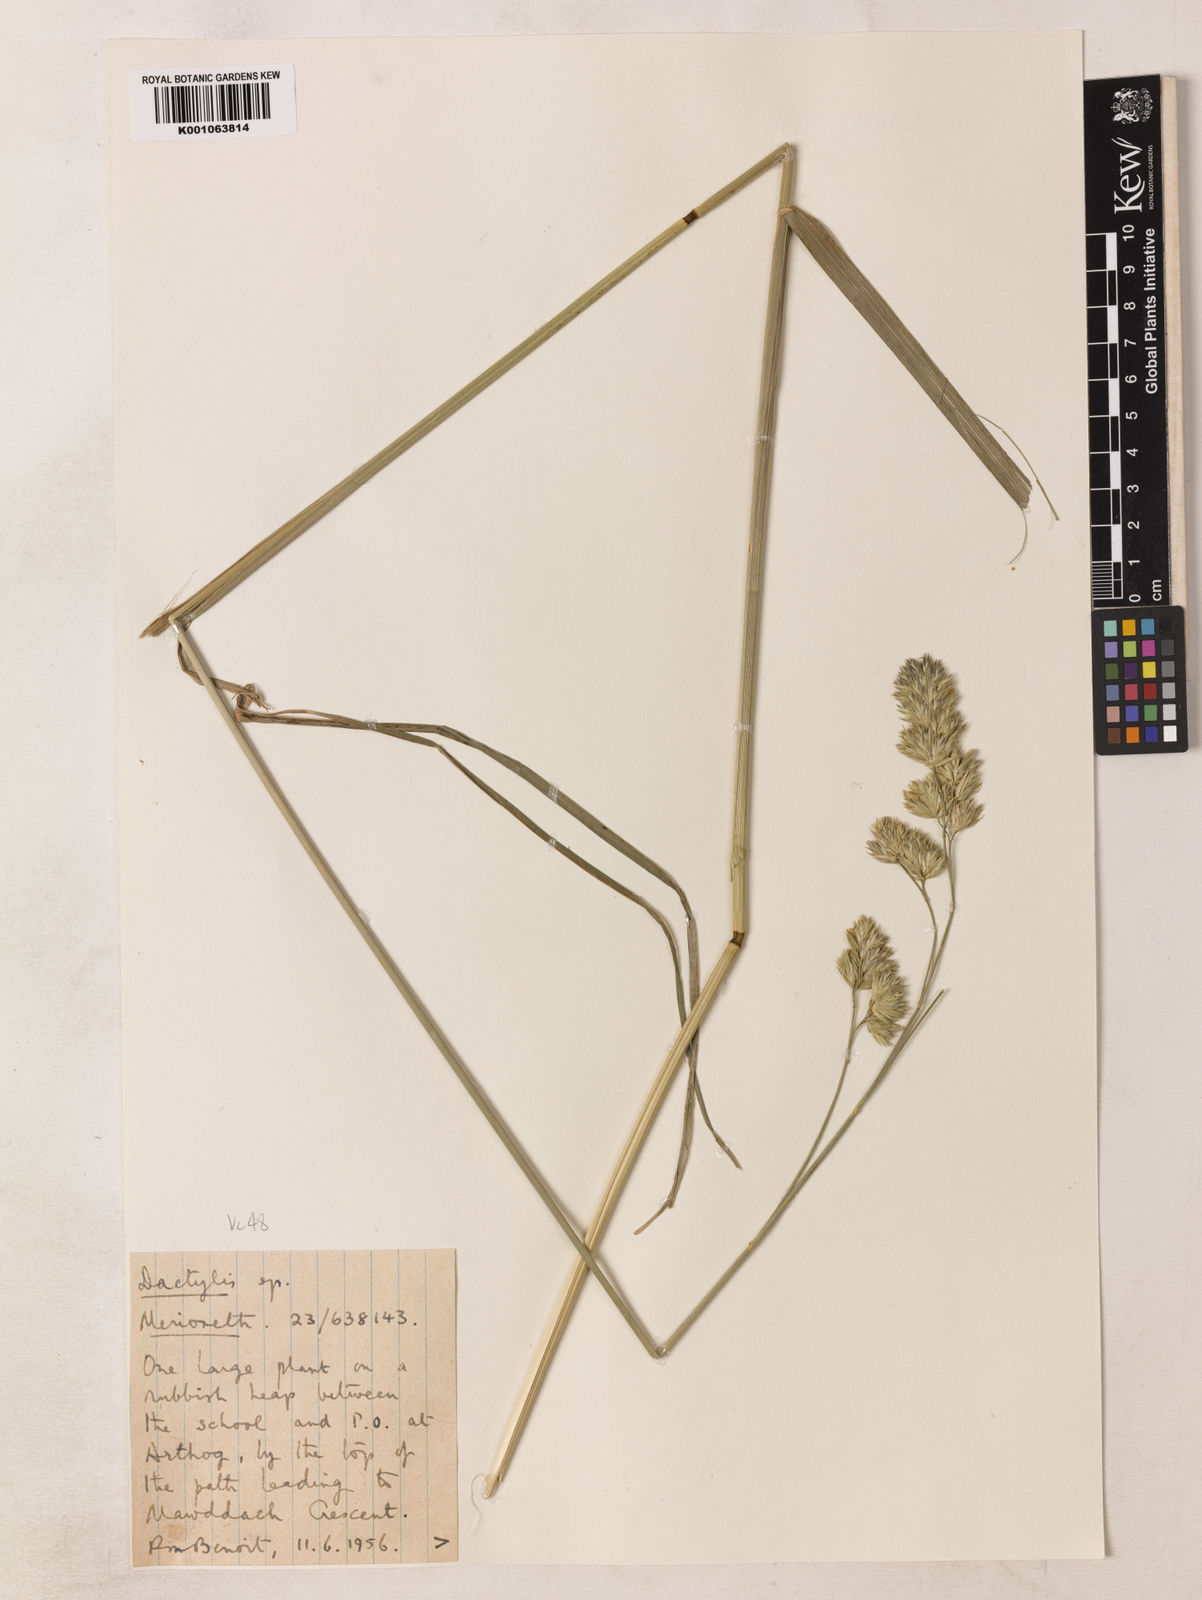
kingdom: Plantae
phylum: Tracheophyta
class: Liliopsida
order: Poales
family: Poaceae
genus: Dactylis
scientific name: Dactylis glomerata
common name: Orchardgrass
